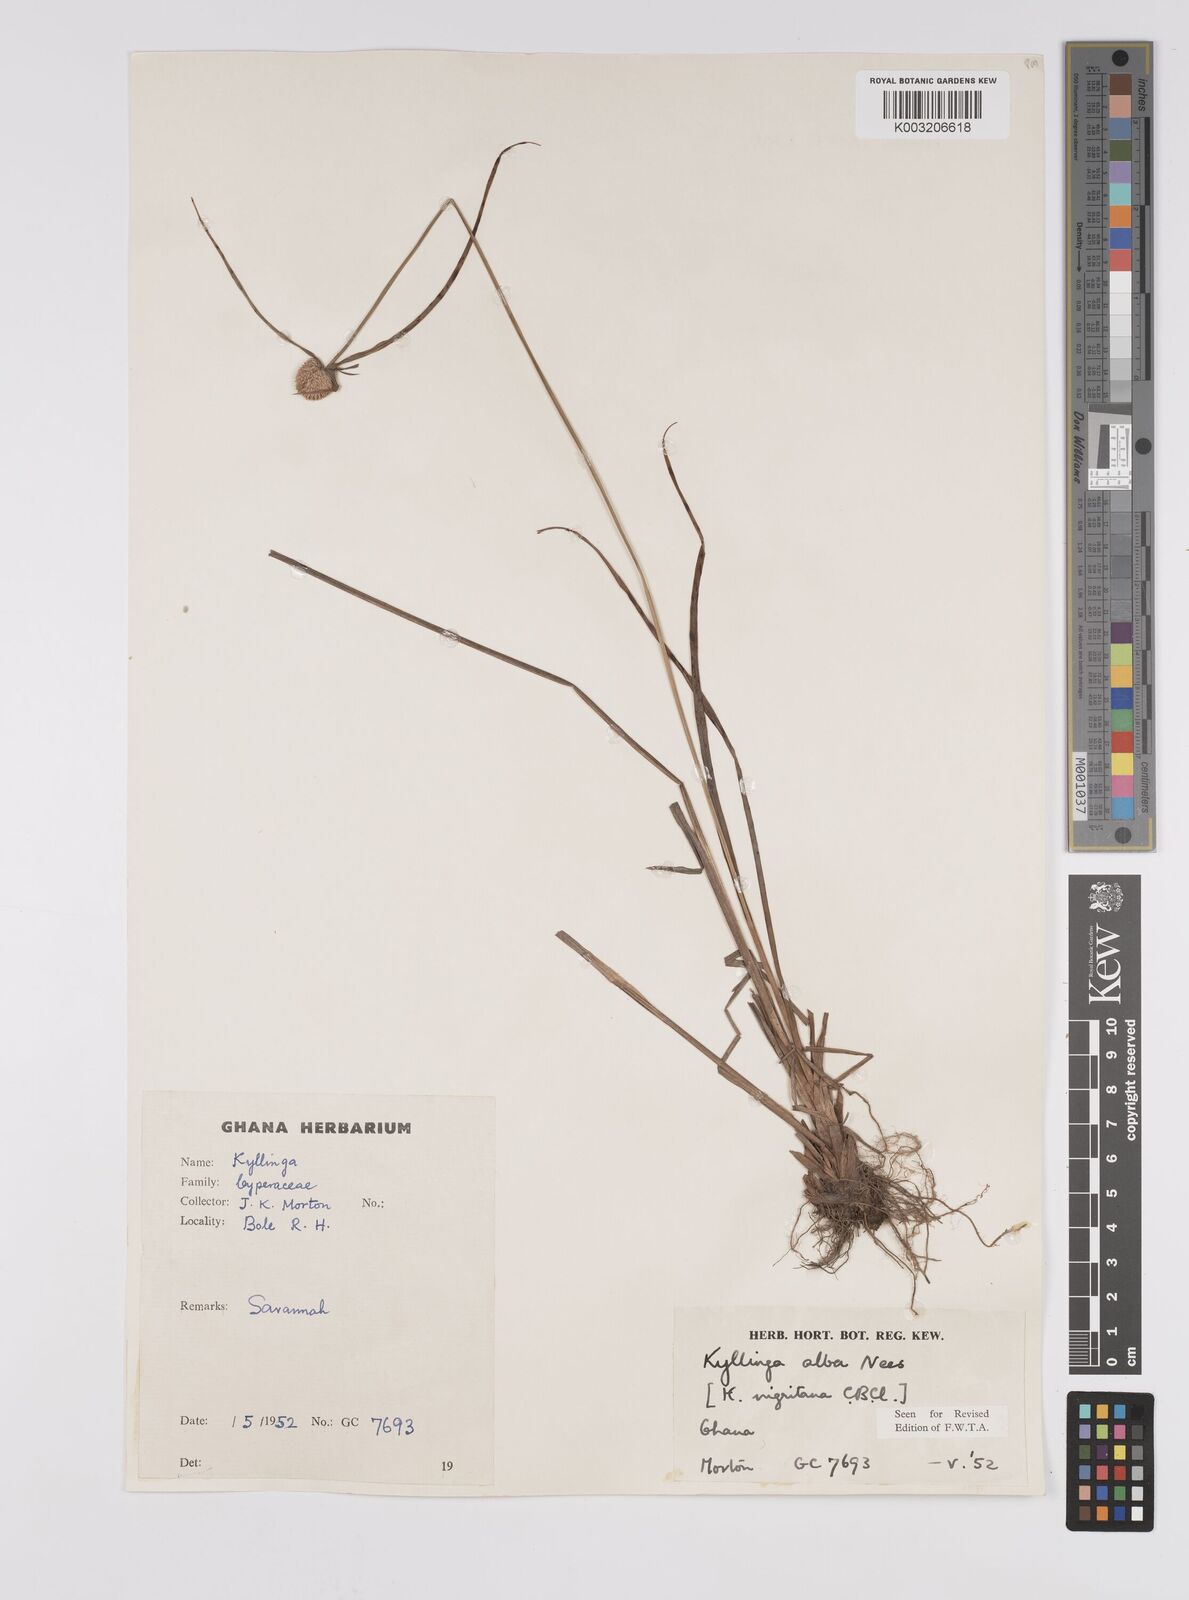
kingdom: Plantae
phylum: Tracheophyta
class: Liliopsida
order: Poales
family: Cyperaceae
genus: Cyperus
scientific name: Cyperus alatus
